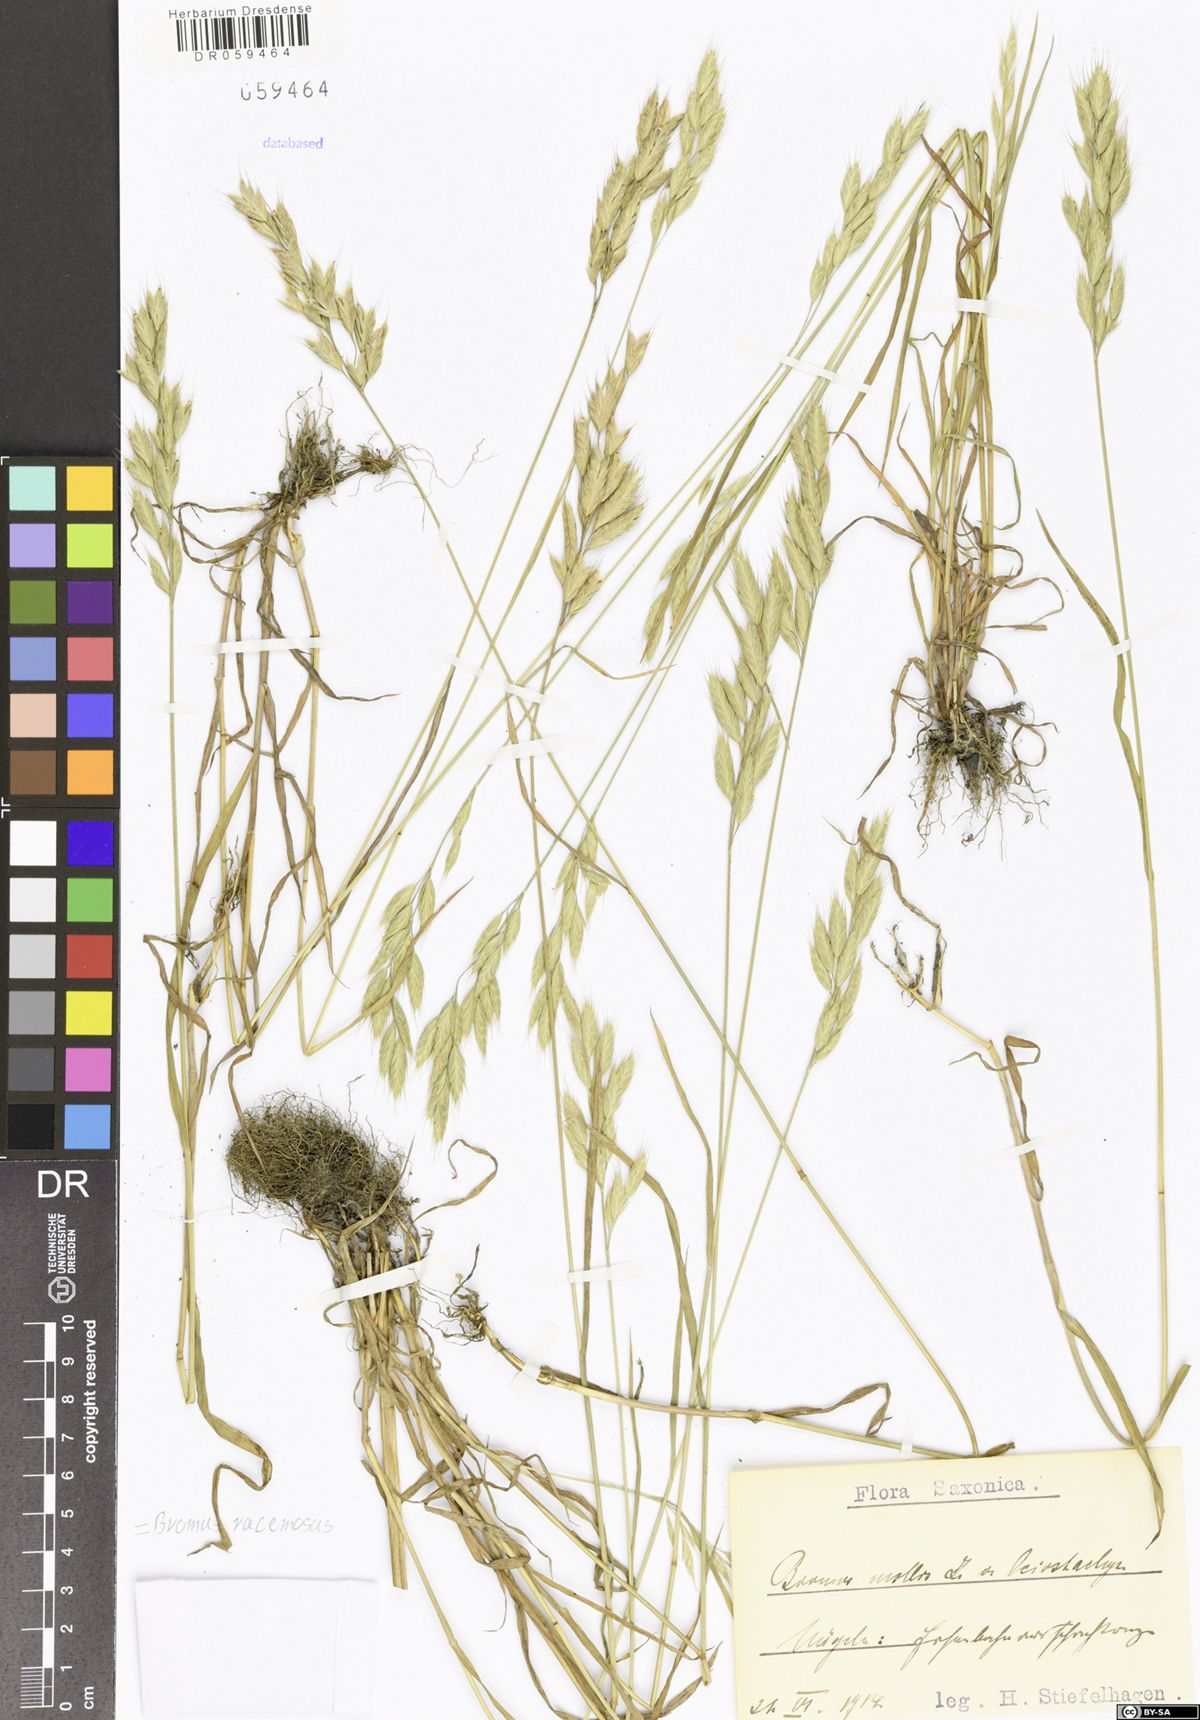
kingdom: Plantae
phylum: Tracheophyta
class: Liliopsida
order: Poales
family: Poaceae
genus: Bromus
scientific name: Bromus racemosus
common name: Bald brome
